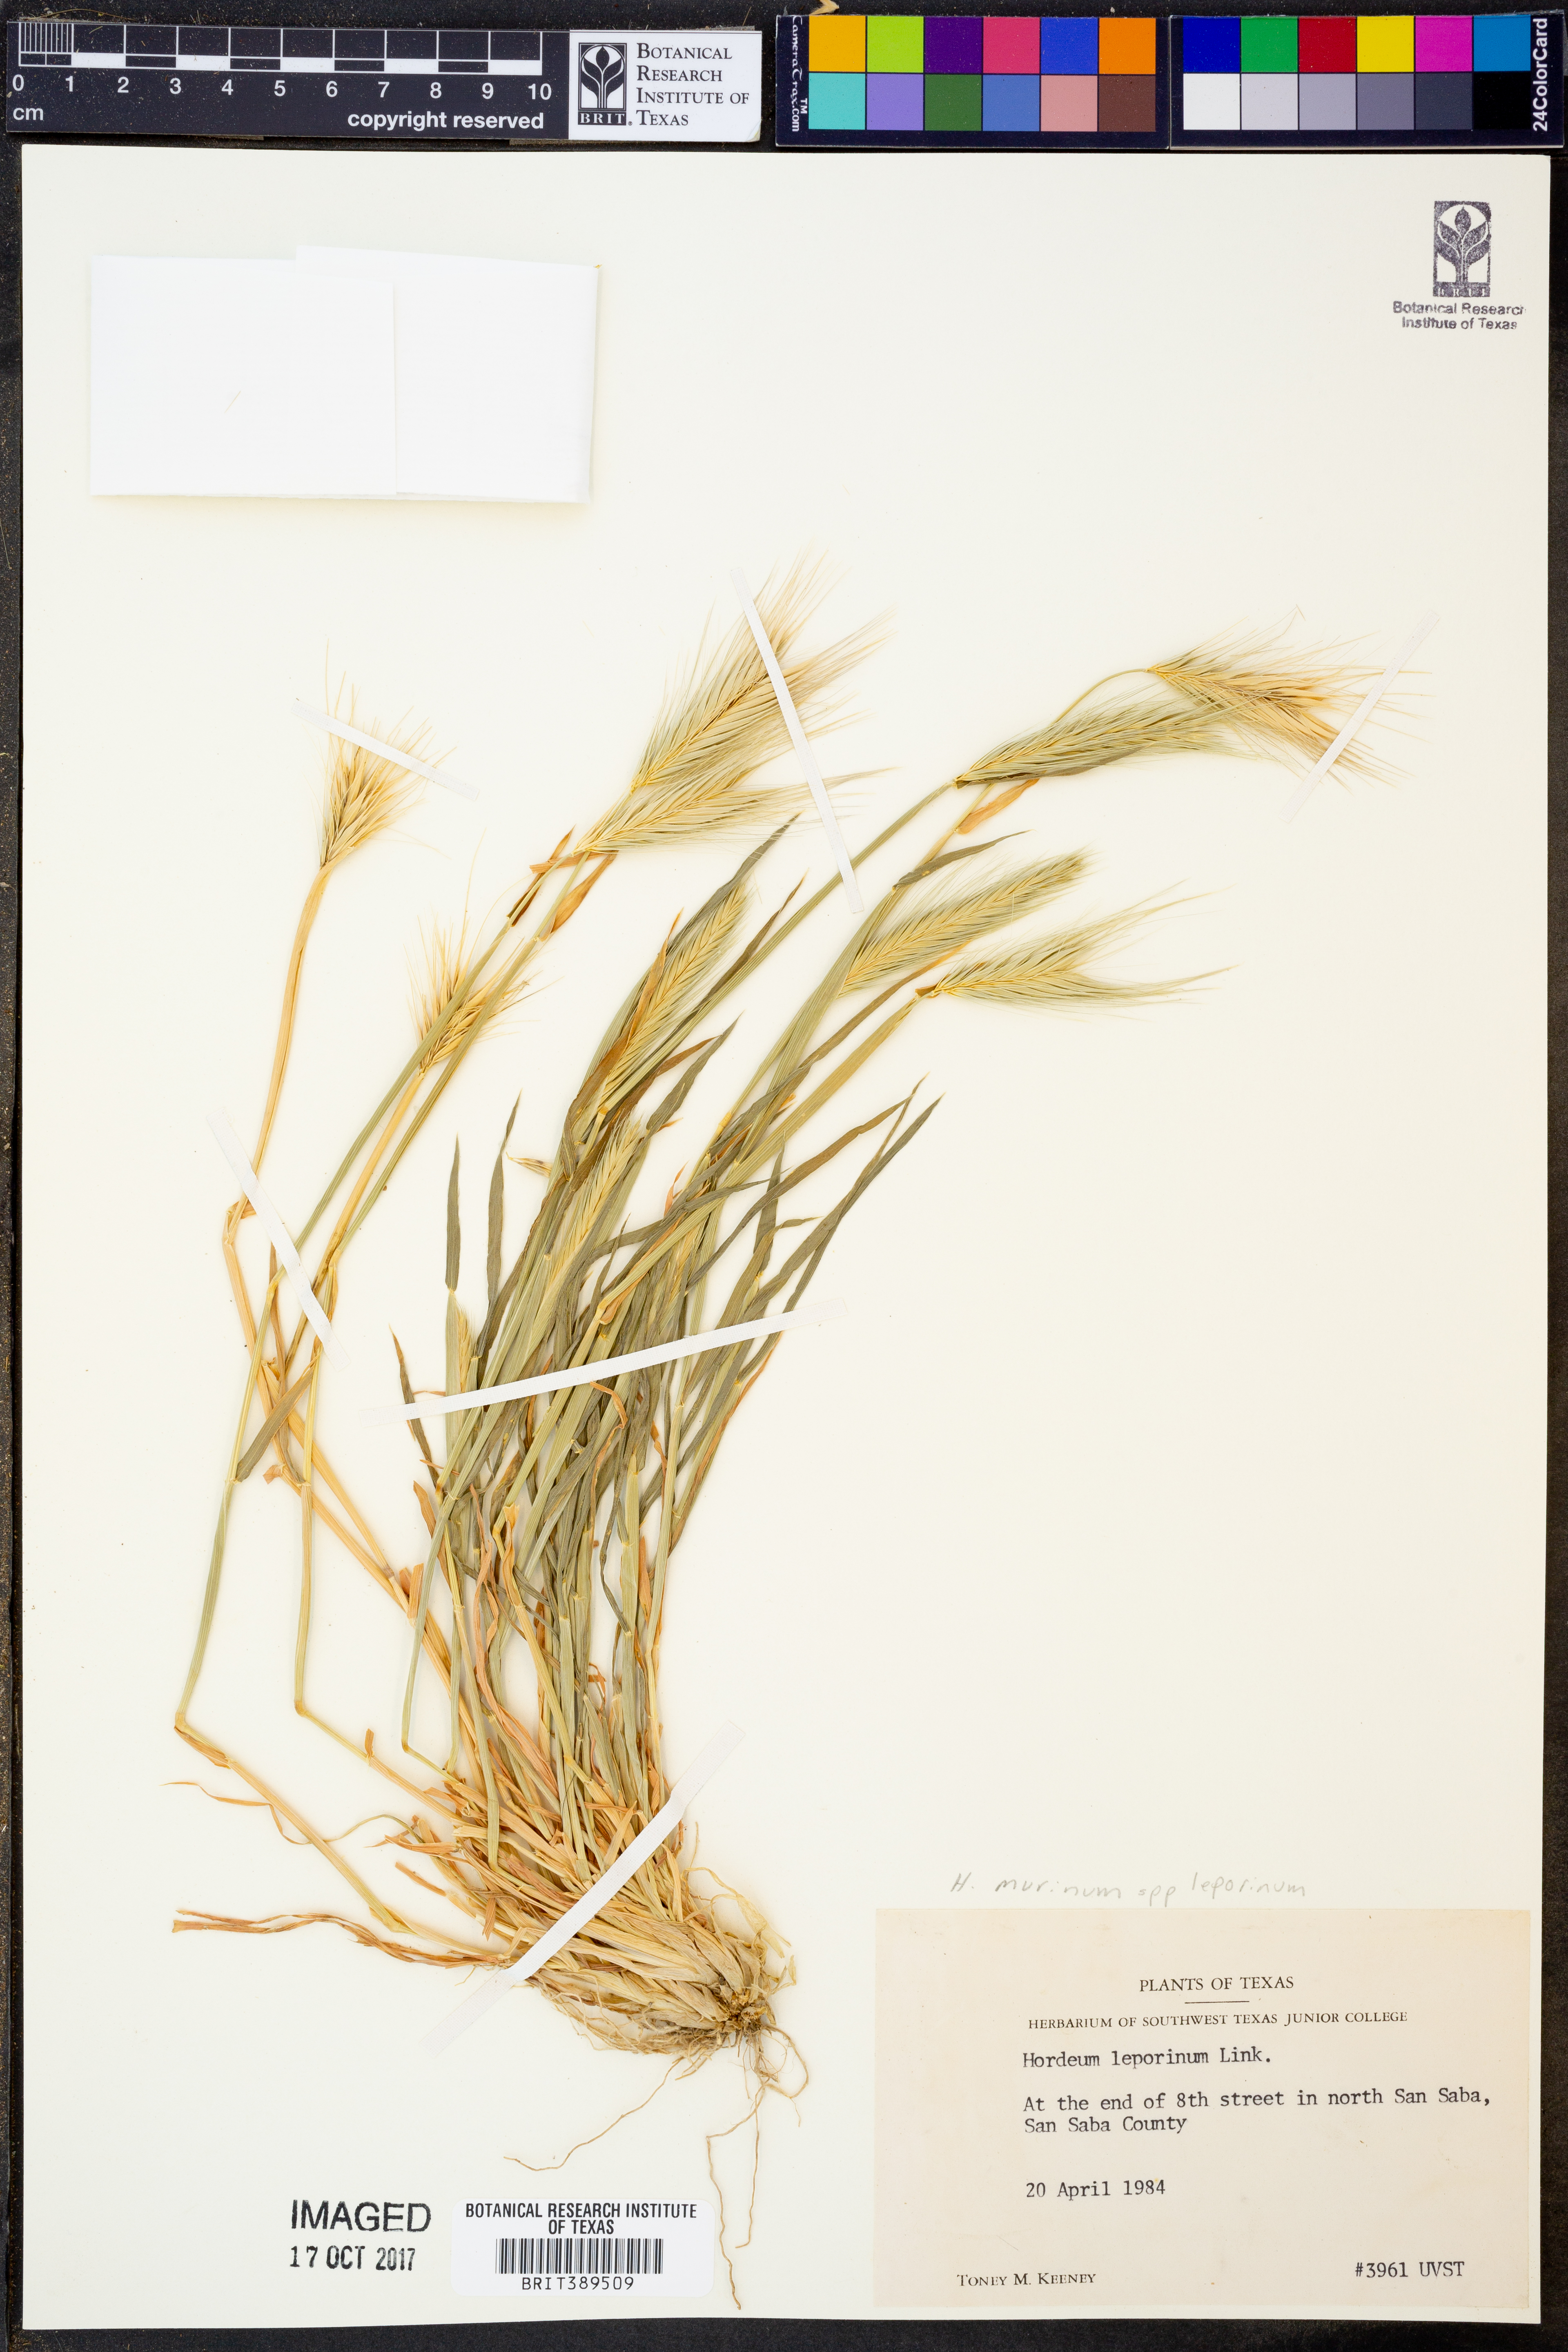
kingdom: Plantae
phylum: Tracheophyta
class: Liliopsida
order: Poales
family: Poaceae
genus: Hordeum
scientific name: Hordeum murinum
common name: Wall barley
